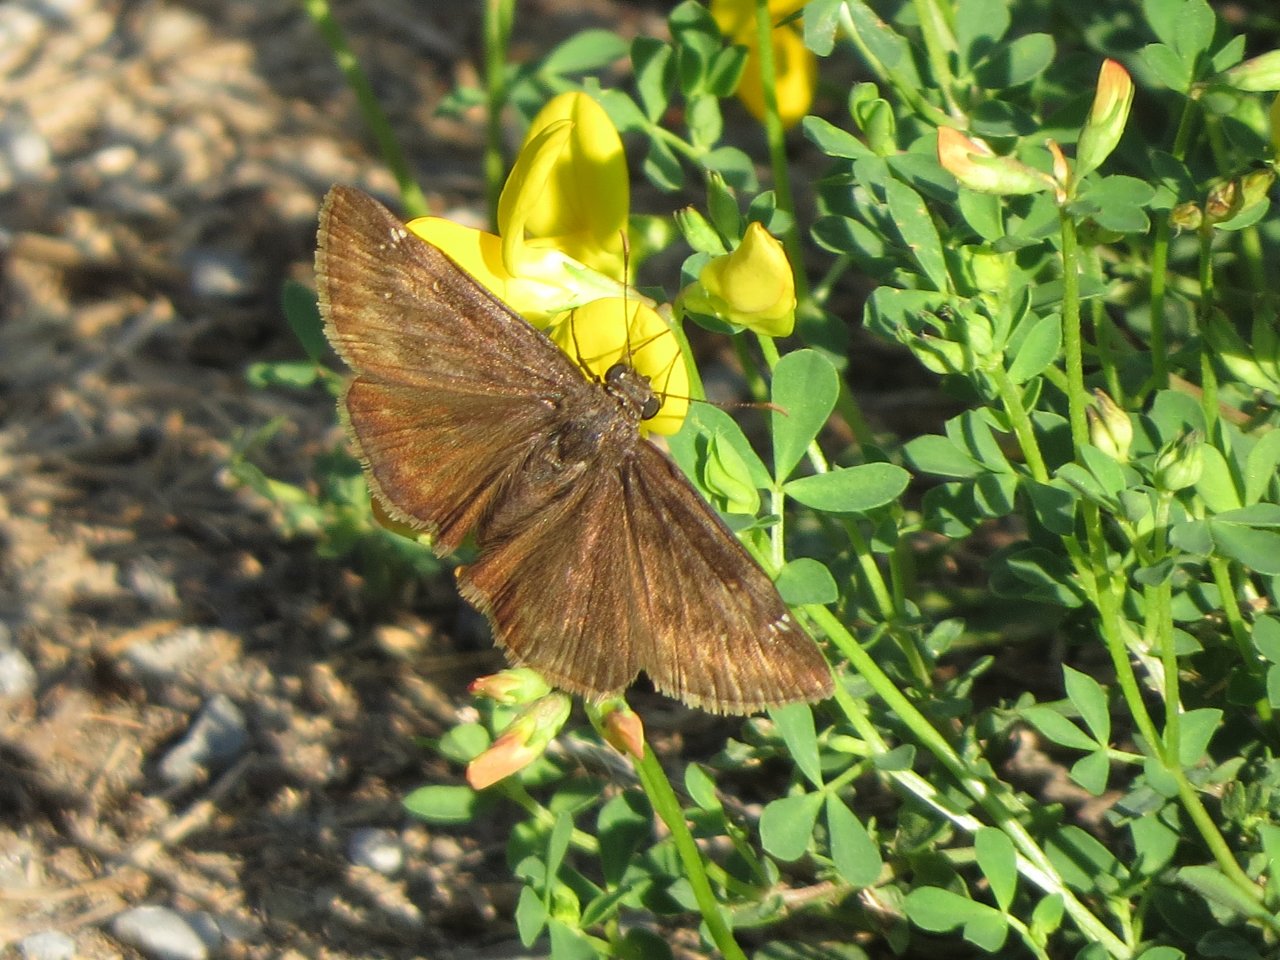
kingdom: Animalia
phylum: Arthropoda
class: Insecta
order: Lepidoptera
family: Hesperiidae
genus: Gesta
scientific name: Gesta
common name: Wild Indigo Duskywing
